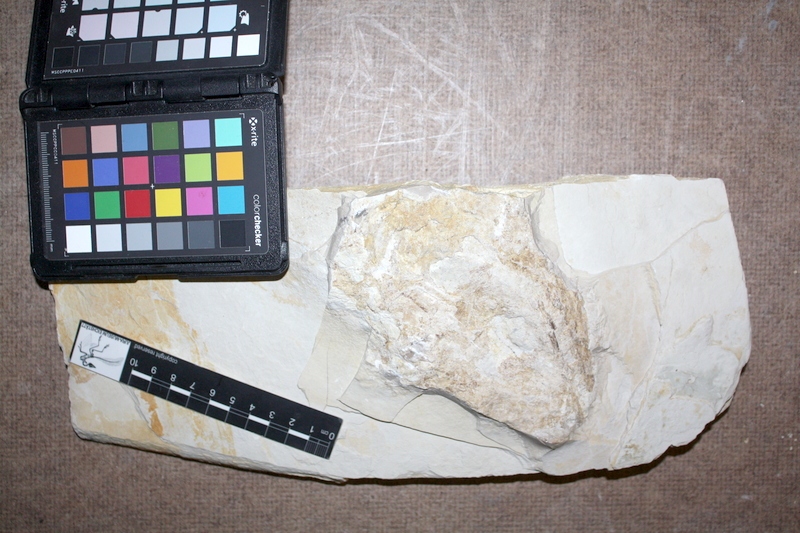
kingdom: Animalia
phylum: Chordata
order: Amiiformes
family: Caturidae
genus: Caturus
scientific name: Caturus
